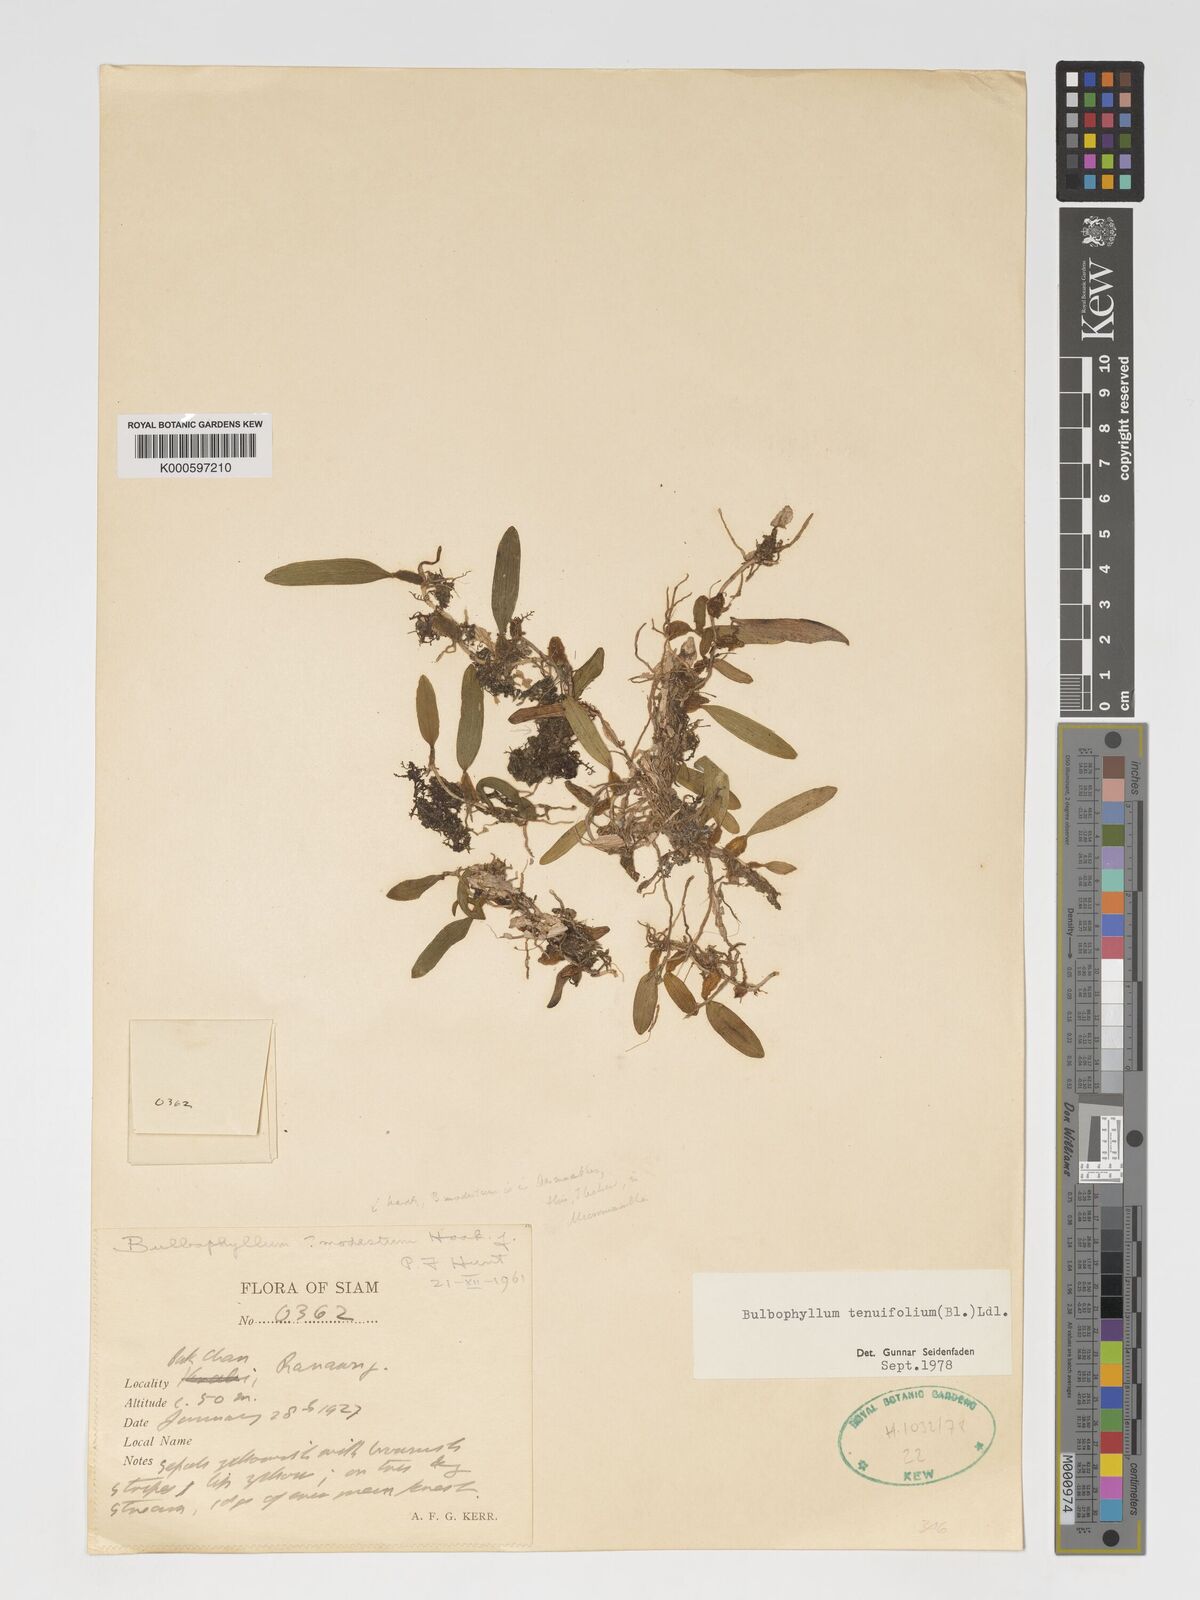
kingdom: Plantae
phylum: Tracheophyta
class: Liliopsida
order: Asparagales
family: Orchidaceae
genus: Bulbophyllum
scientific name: Bulbophyllum tenuifolium
